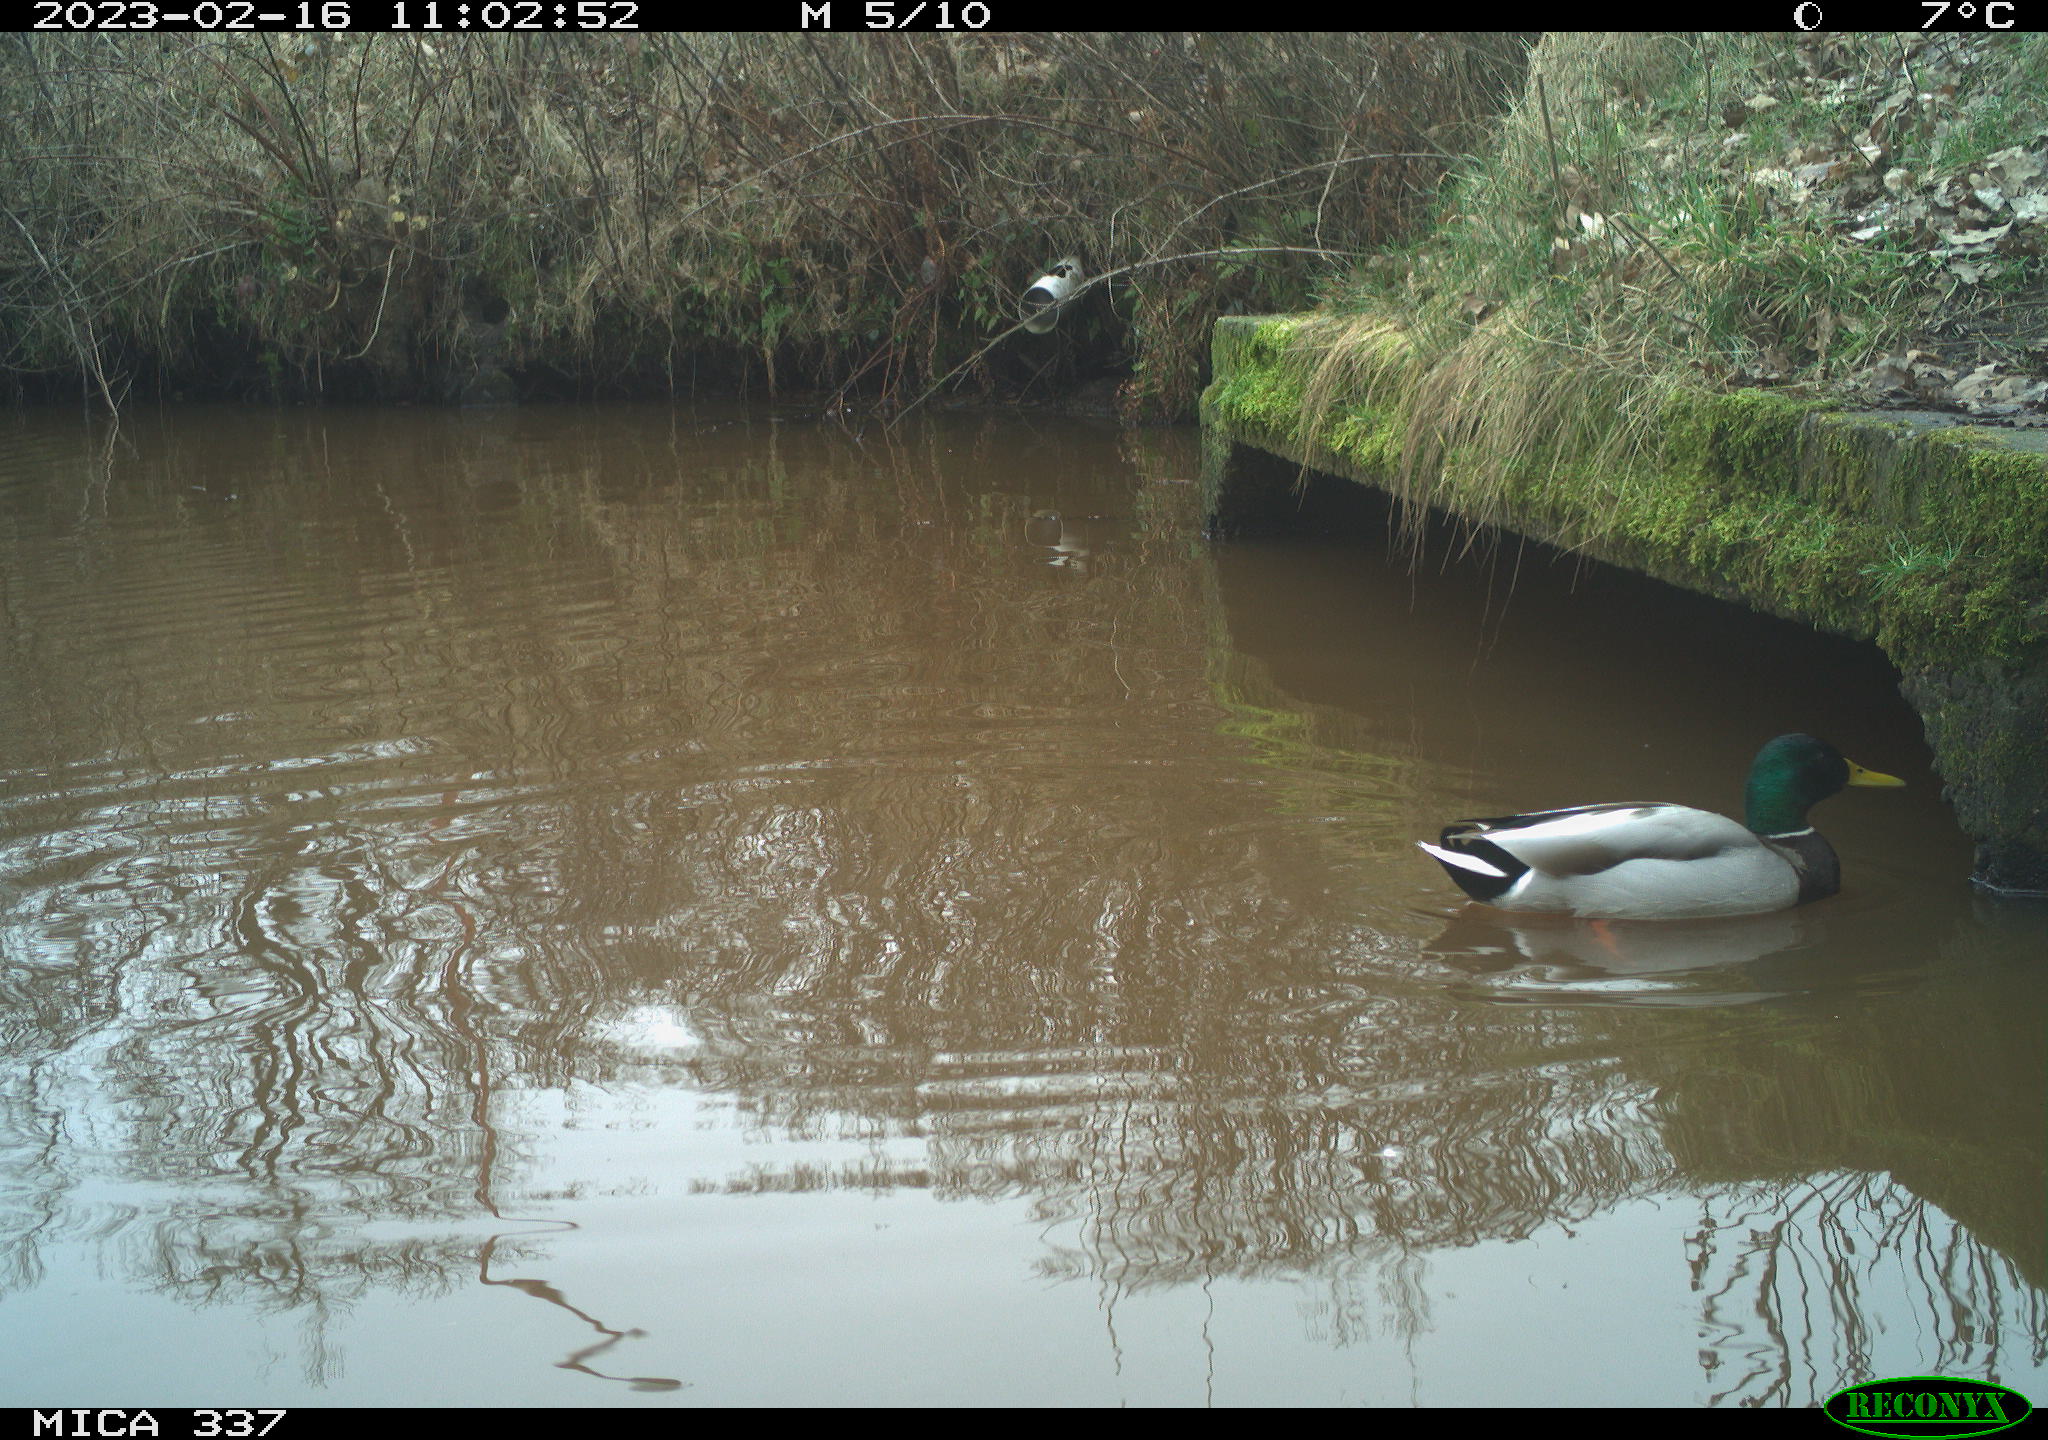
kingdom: Animalia
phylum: Chordata
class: Aves
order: Anseriformes
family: Anatidae
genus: Anas
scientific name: Anas
